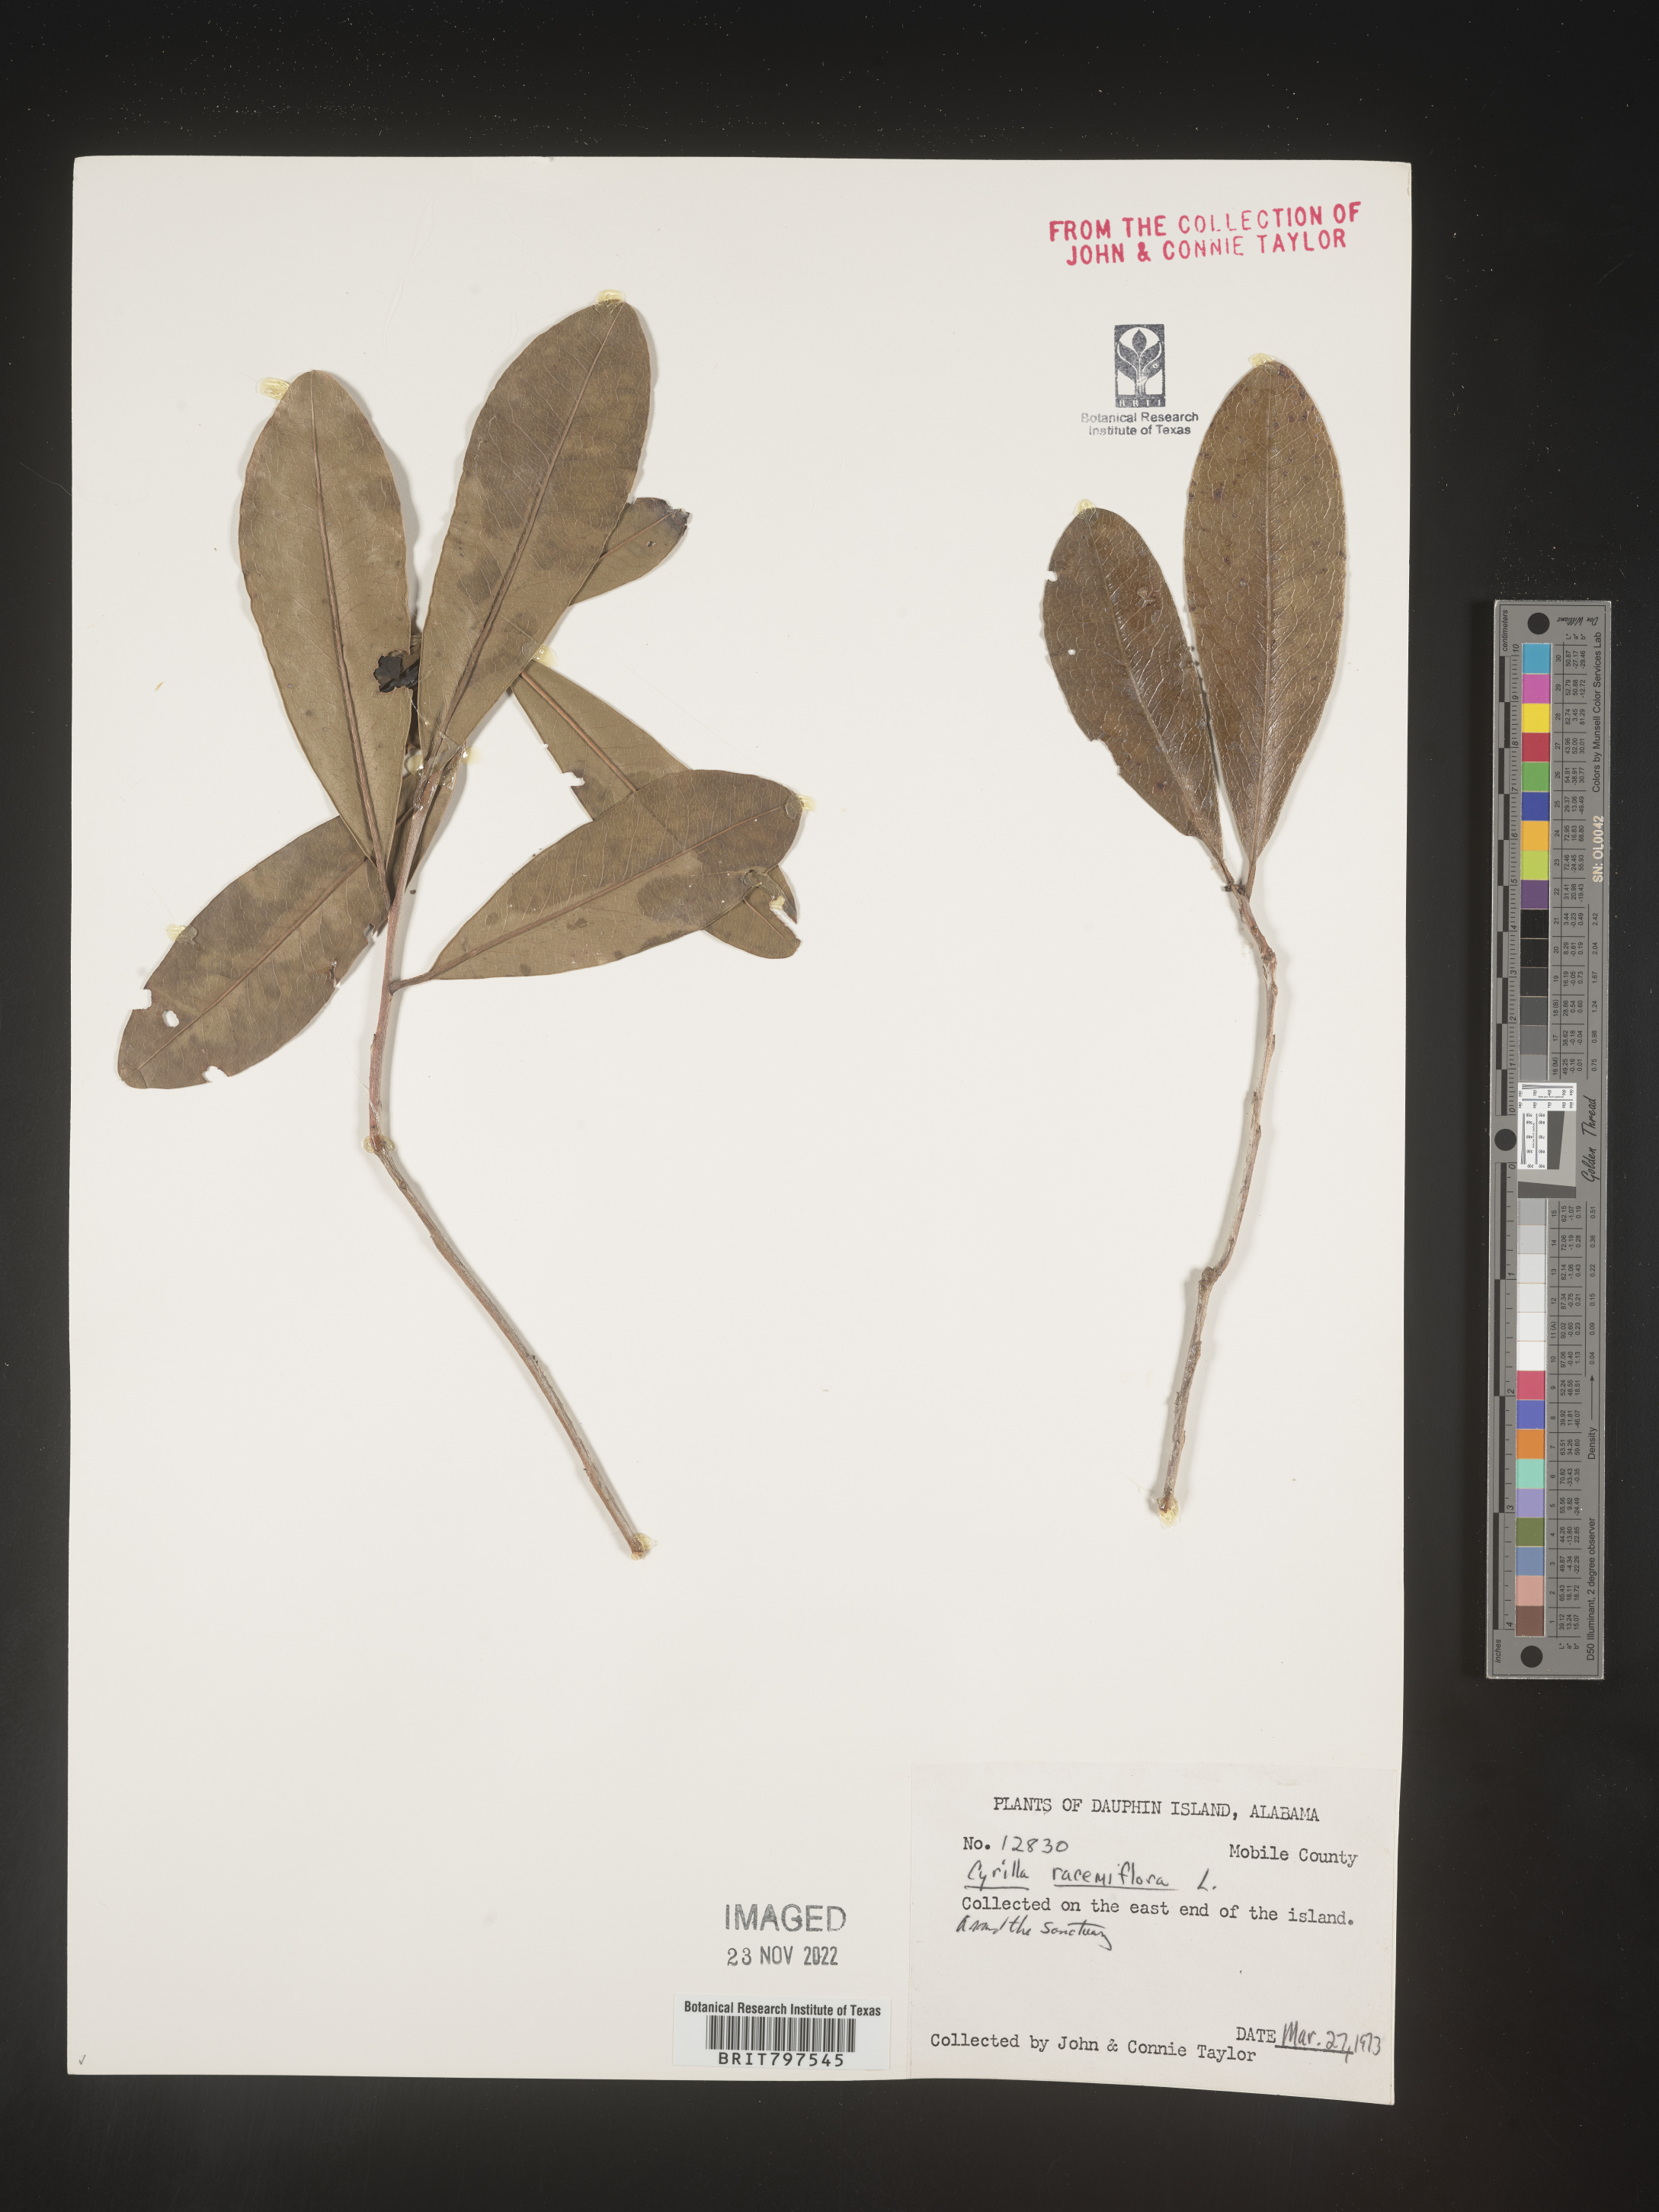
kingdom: Plantae
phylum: Tracheophyta
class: Magnoliopsida
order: Ericales
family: Cyrillaceae
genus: Cyrilla
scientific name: Cyrilla racemiflora
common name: Black titi
